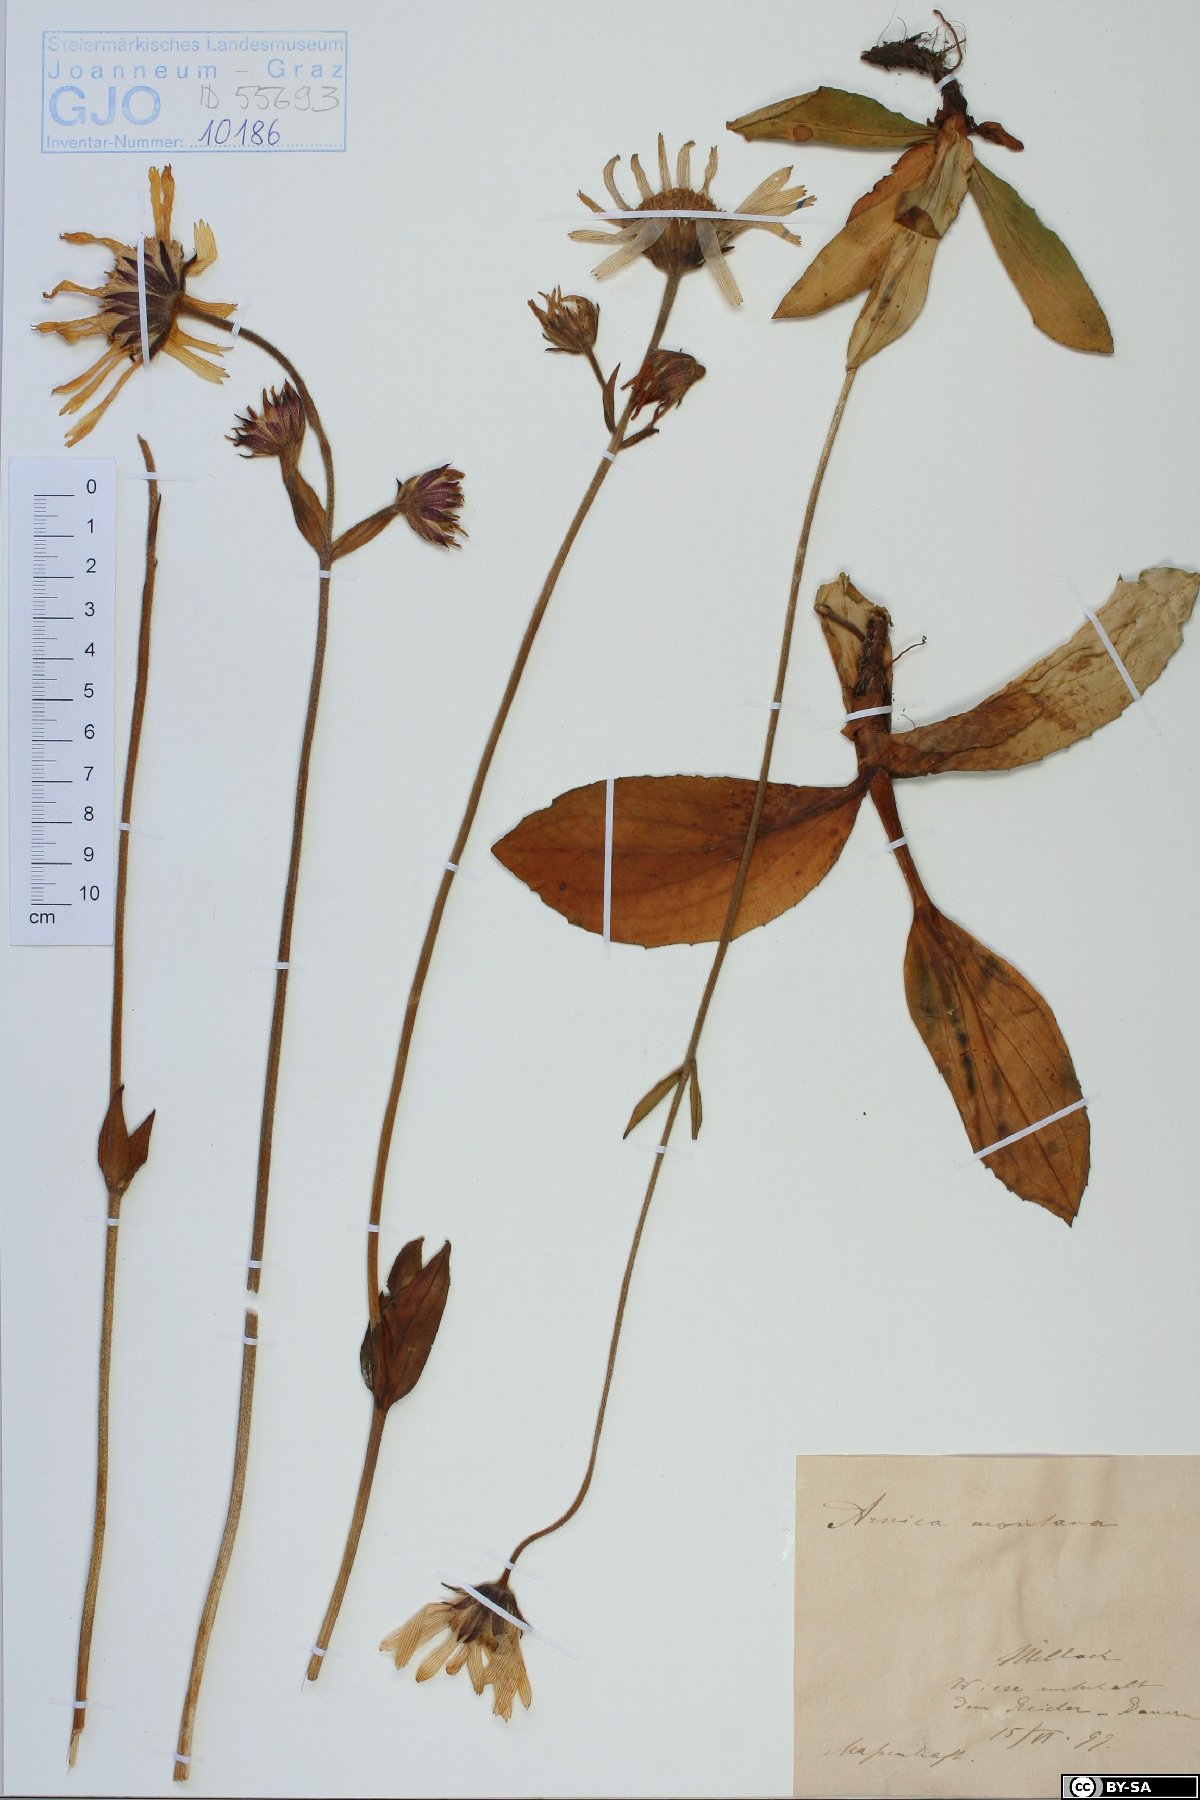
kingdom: Plantae
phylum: Tracheophyta
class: Magnoliopsida
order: Asterales
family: Asteraceae
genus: Arnica
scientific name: Arnica montana
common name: Leopard's bane
